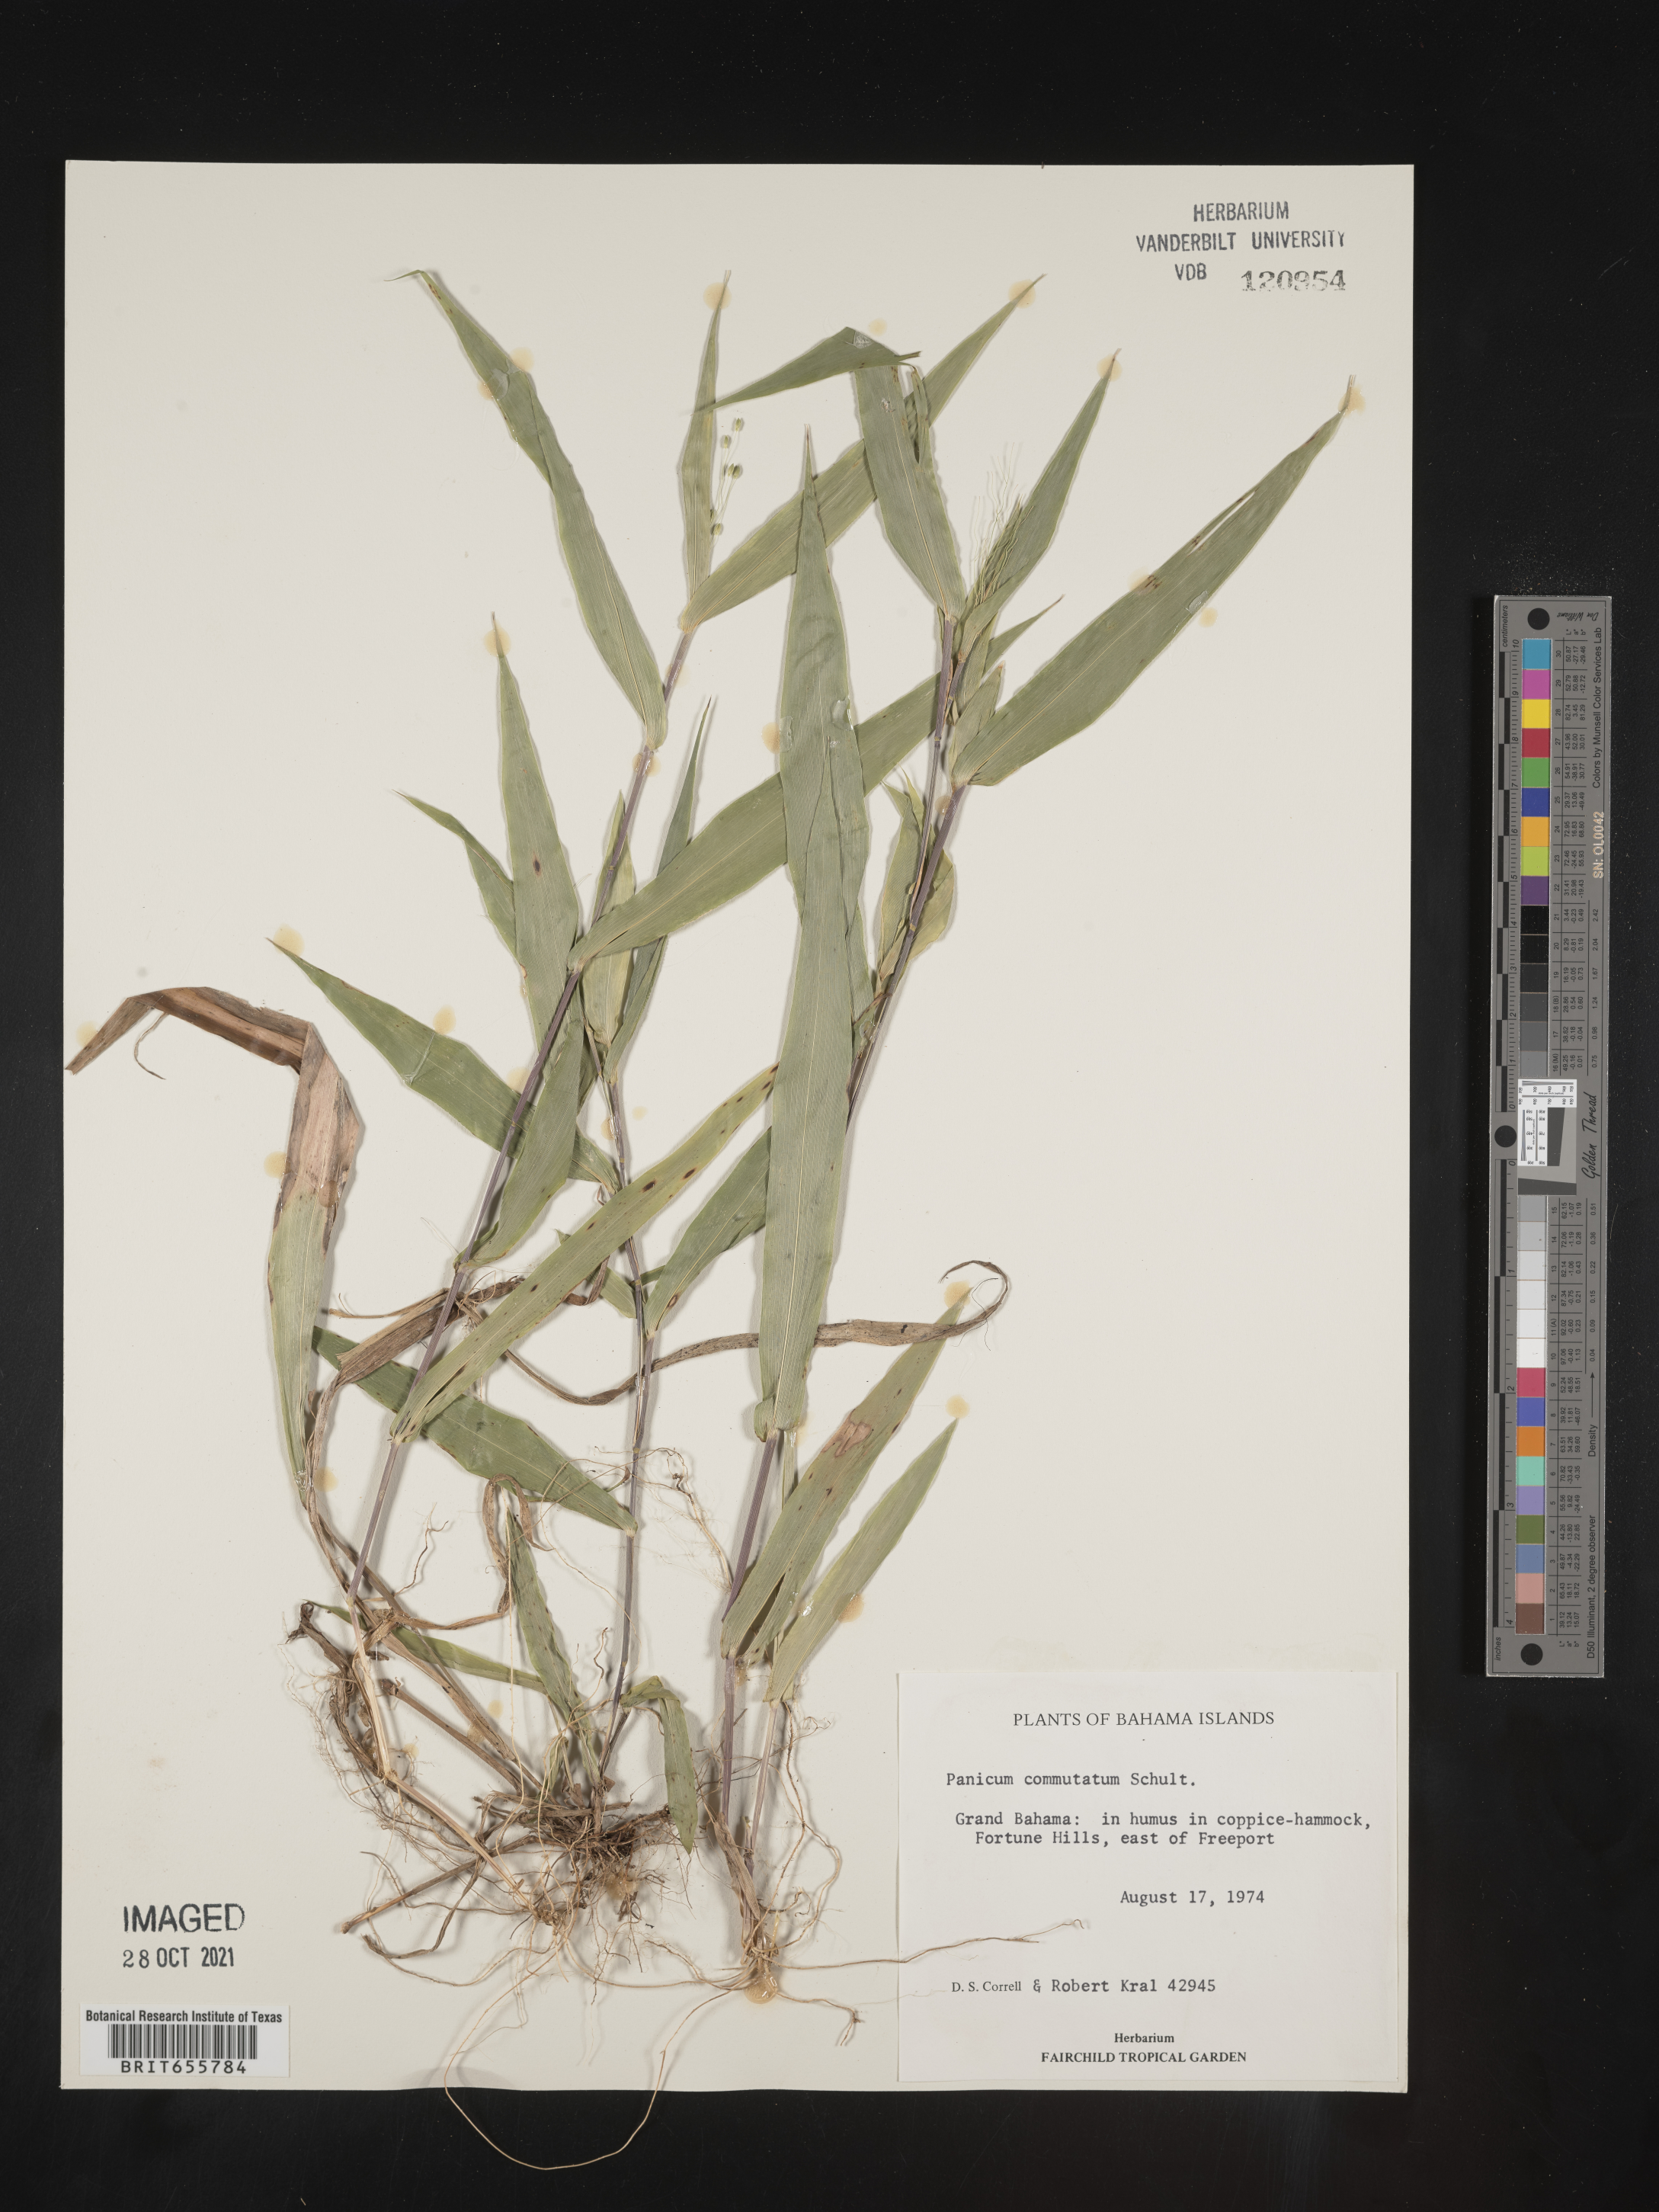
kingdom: Plantae
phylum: Tracheophyta
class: Liliopsida
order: Poales
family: Poaceae
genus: Panicum
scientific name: Panicum
